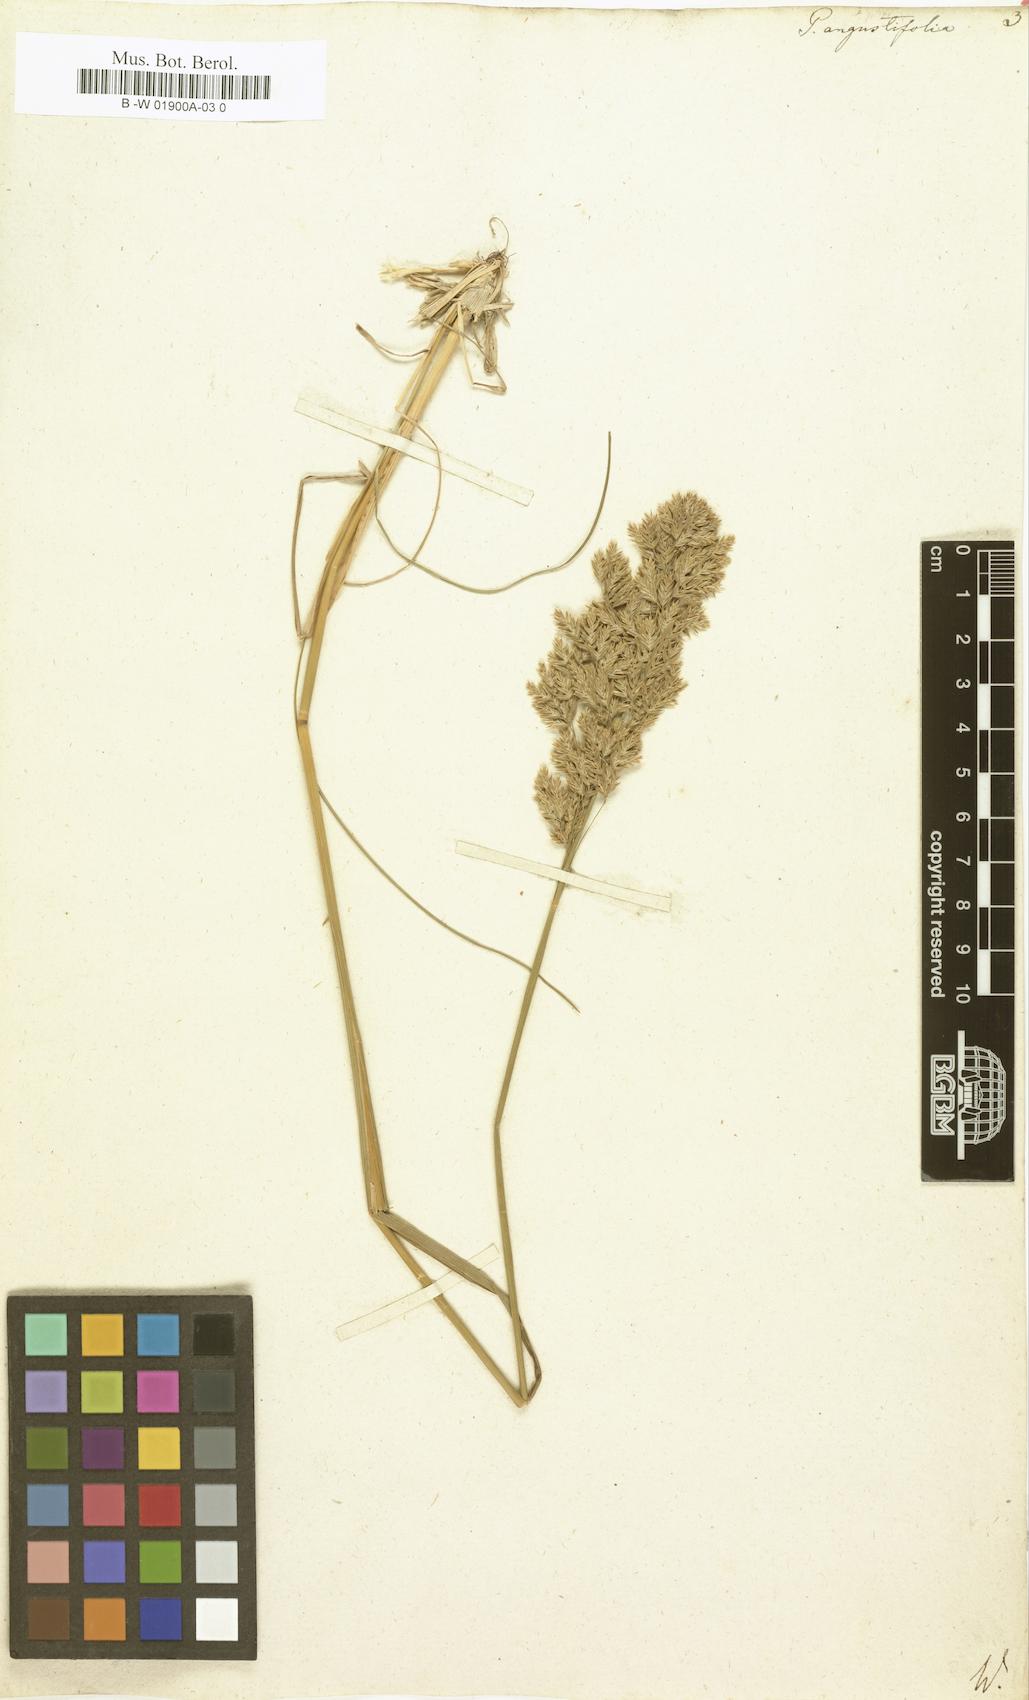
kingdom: Plantae
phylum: Tracheophyta
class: Liliopsida
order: Poales
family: Poaceae
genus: Poa
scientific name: Poa pratensis
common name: Kentucky bluegrass
